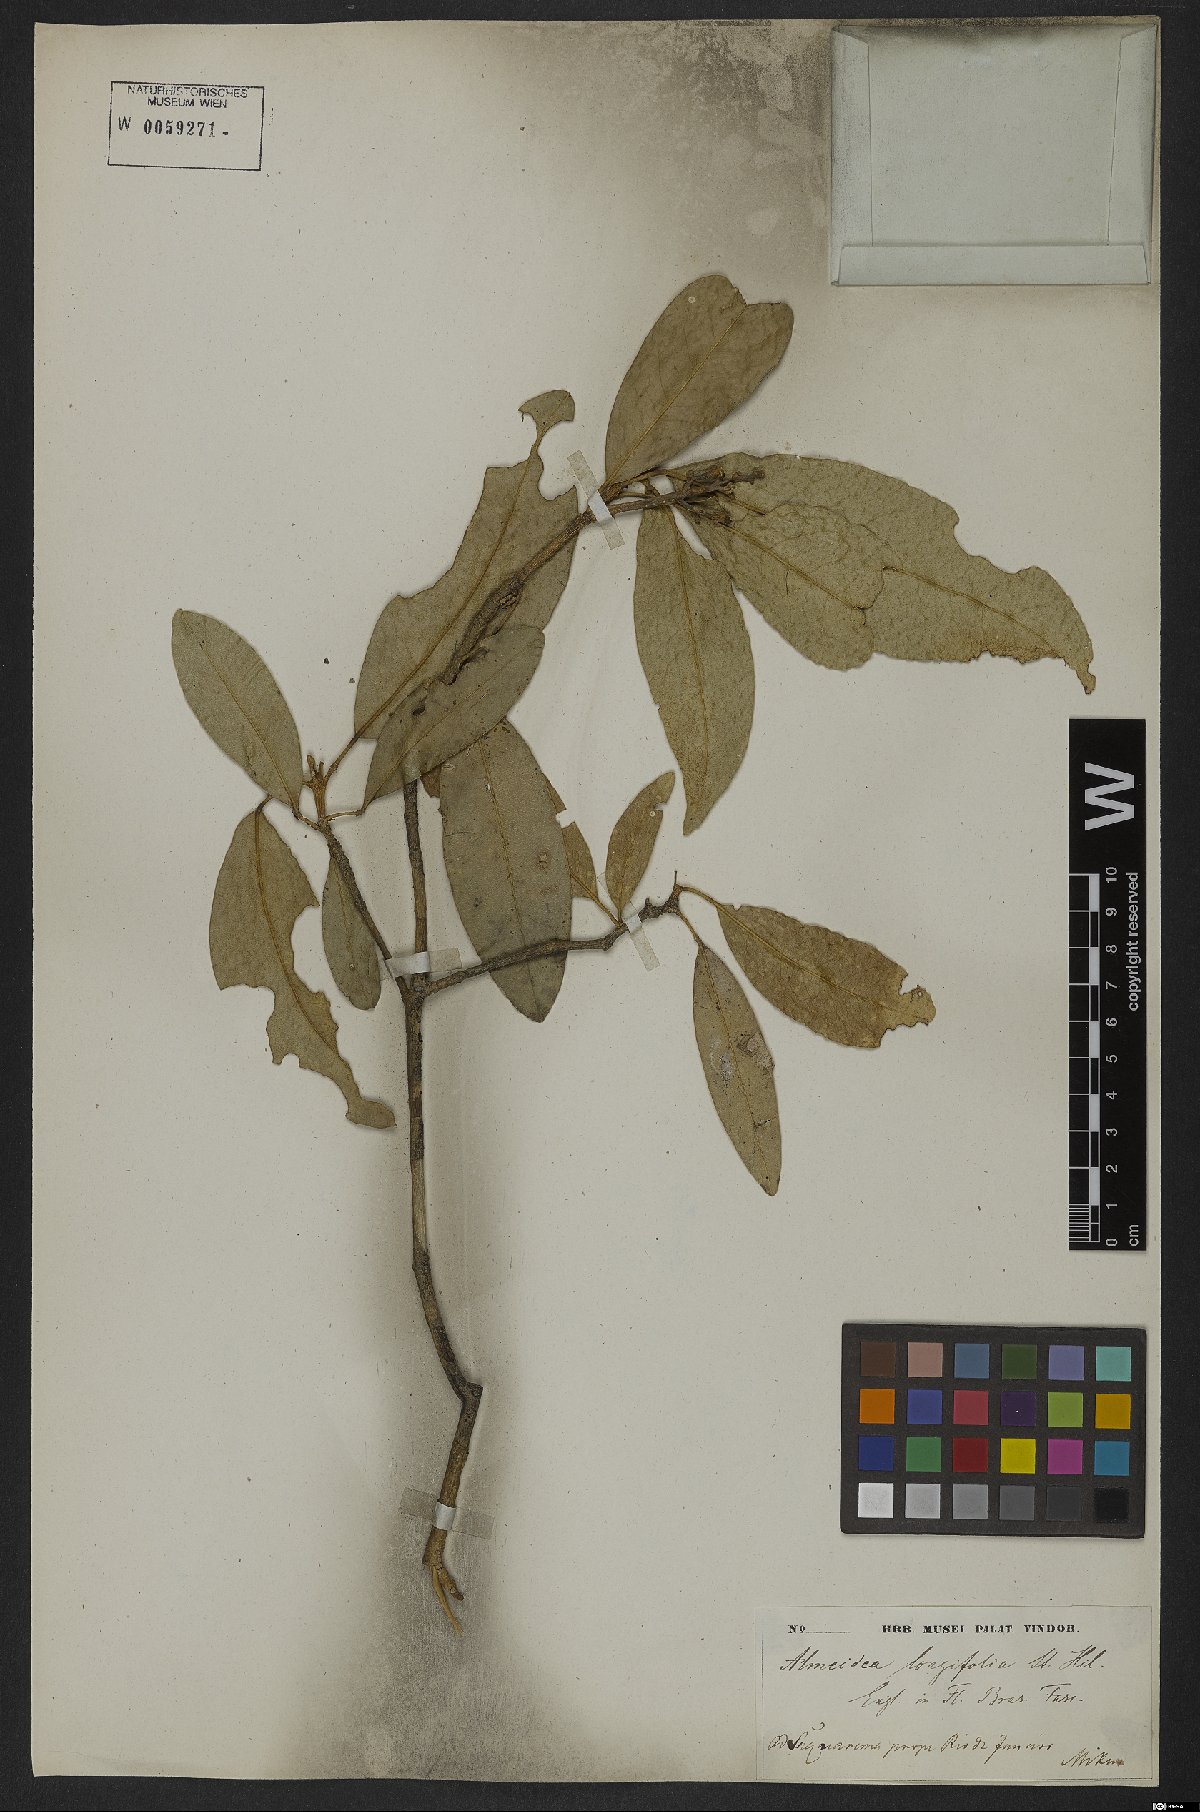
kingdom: Plantae
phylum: Tracheophyta
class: Magnoliopsida
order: Sapindales
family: Rutaceae
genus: Conchocarpus
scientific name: Conchocarpus ruber
